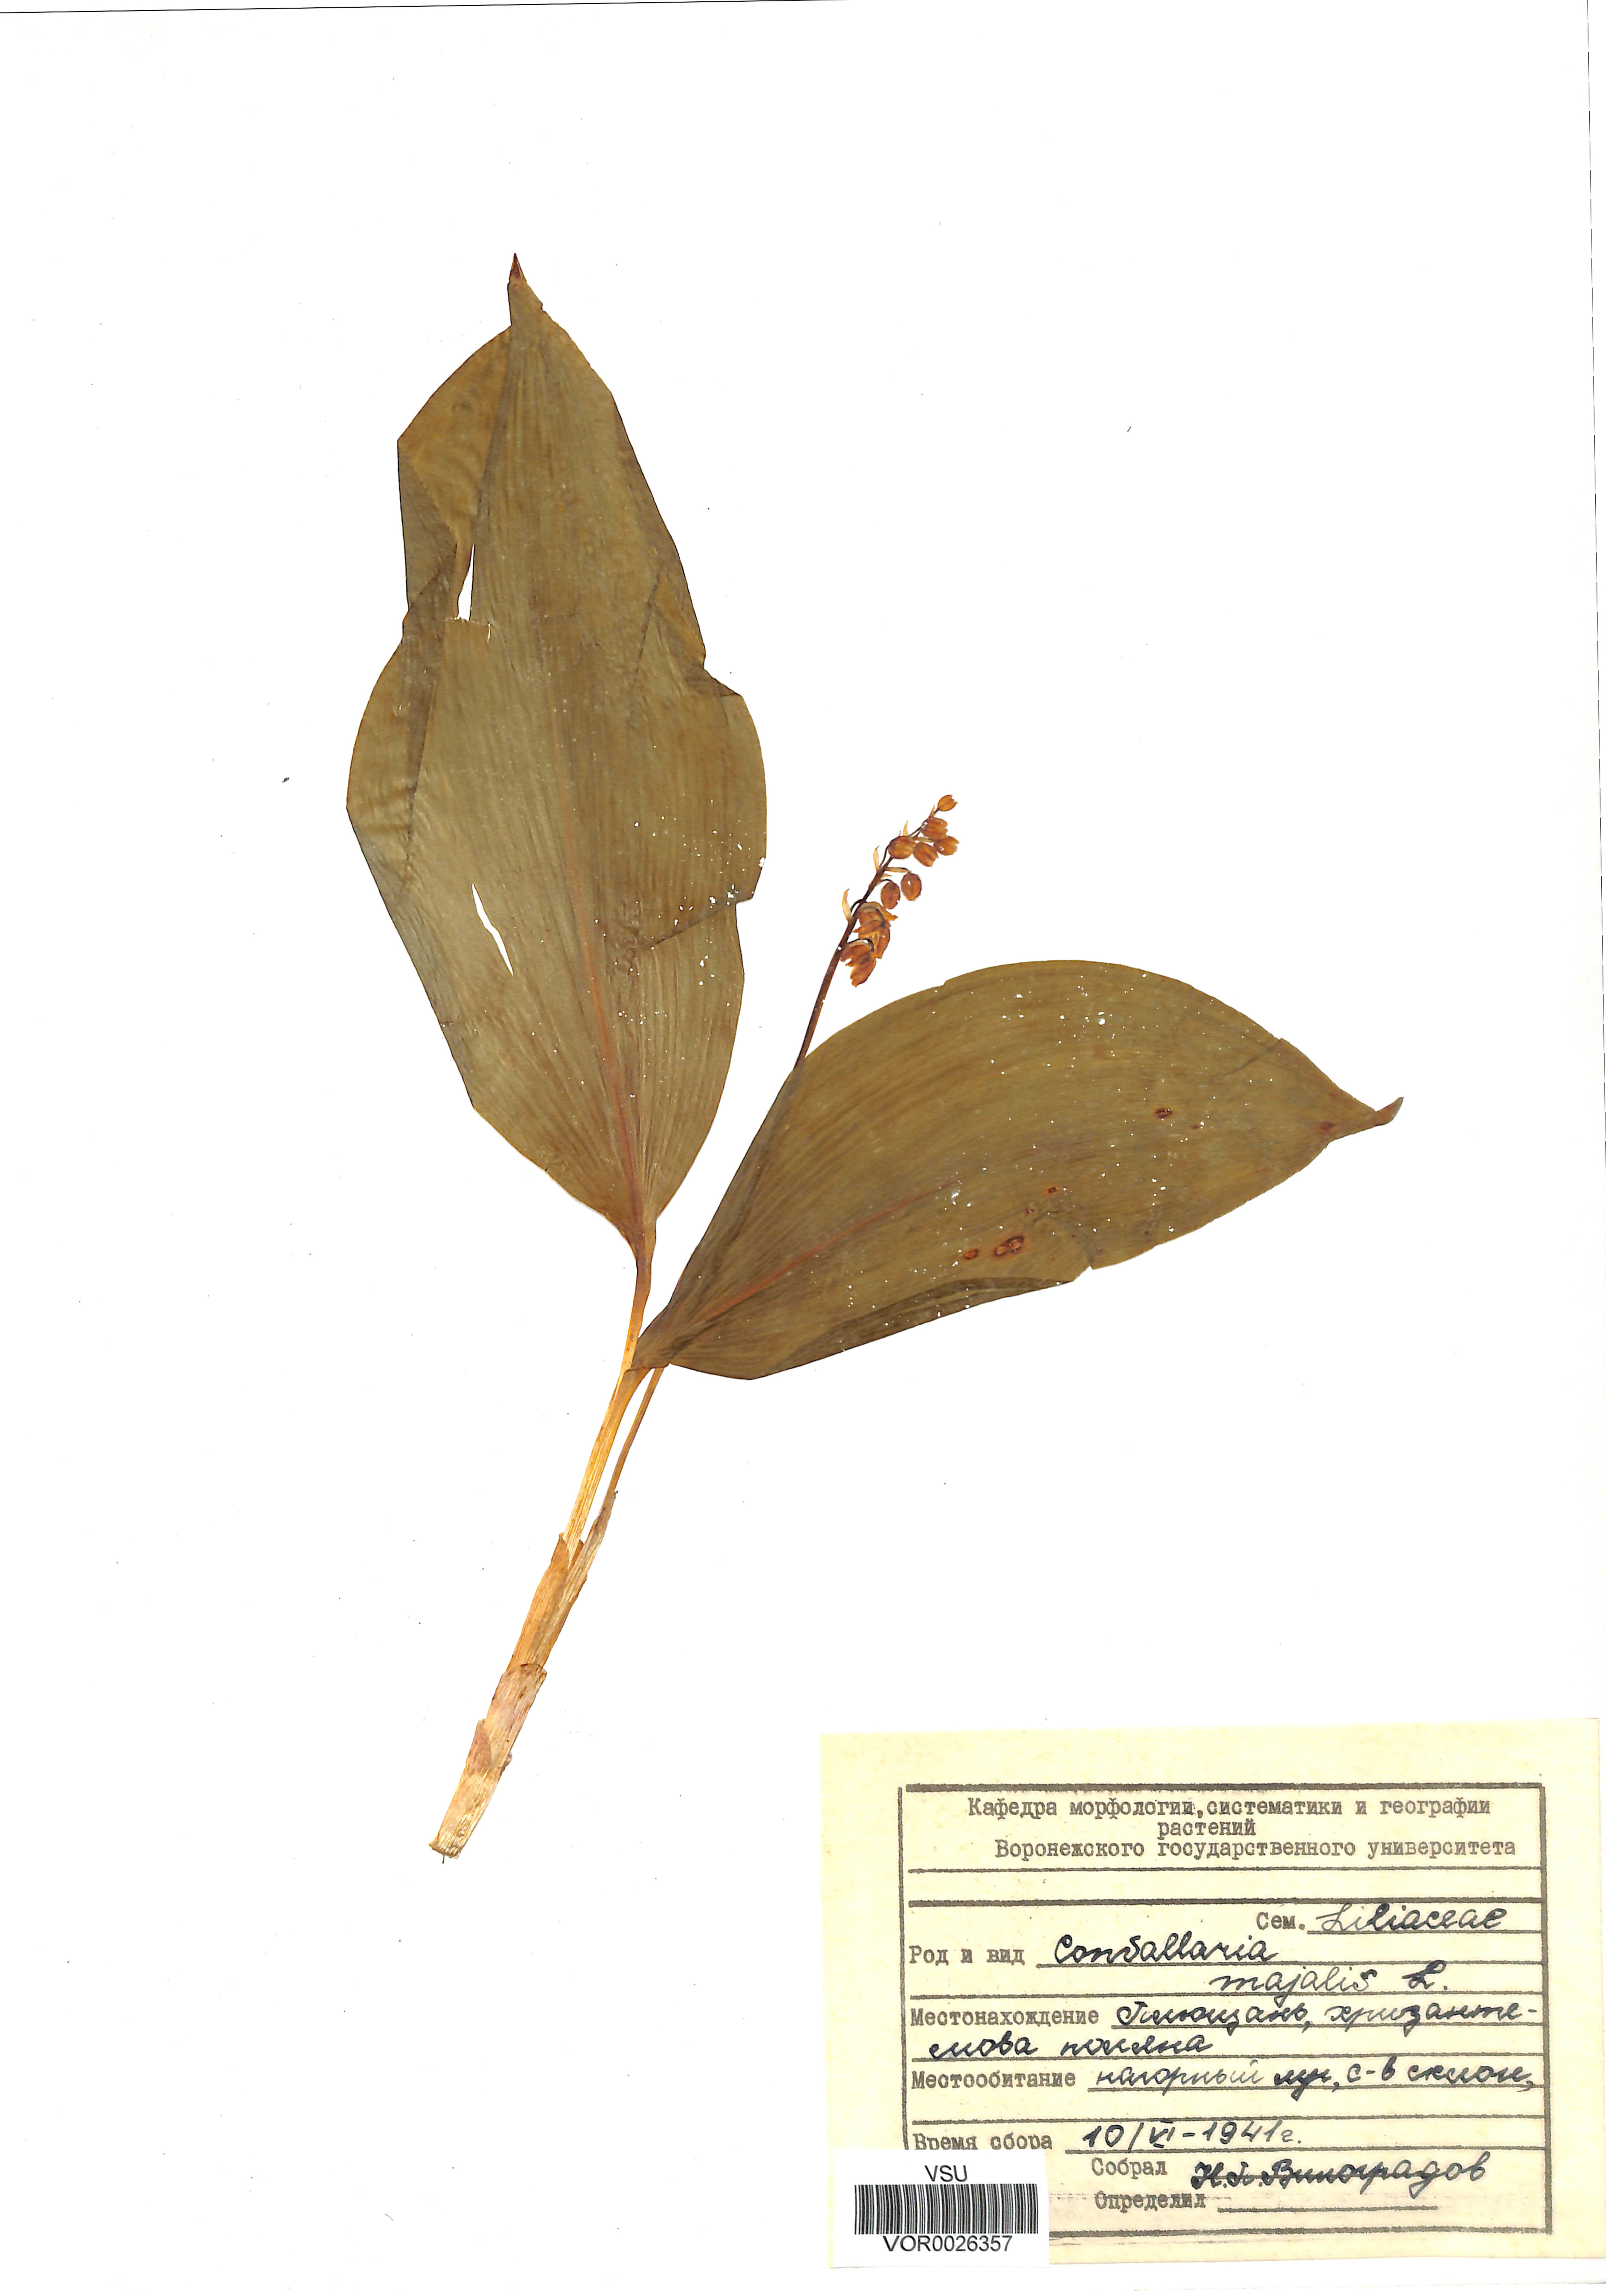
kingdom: Plantae
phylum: Tracheophyta
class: Liliopsida
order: Asparagales
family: Asparagaceae
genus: Convallaria
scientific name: Convallaria majalis
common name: Lily-of-the-valley
